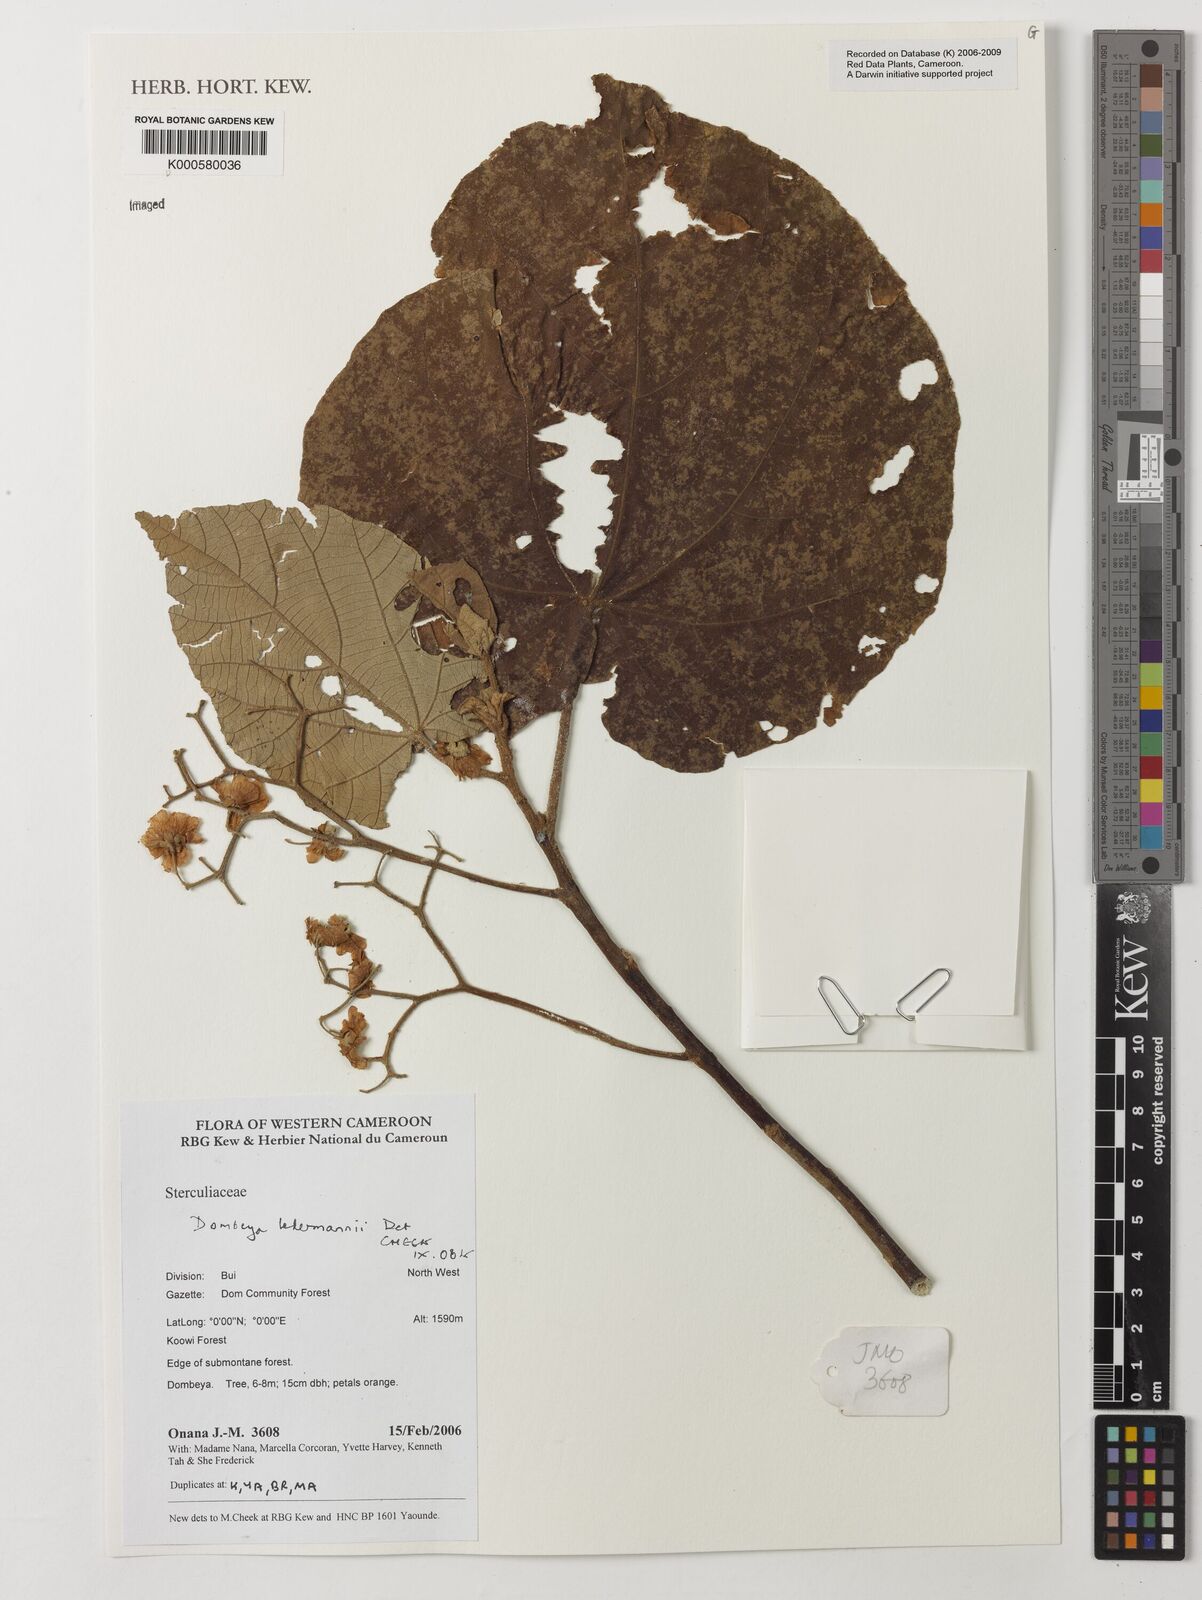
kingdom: Plantae
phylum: Tracheophyta
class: Magnoliopsida
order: Malvales
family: Malvaceae
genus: Dombeya
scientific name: Dombeya ledermannii
